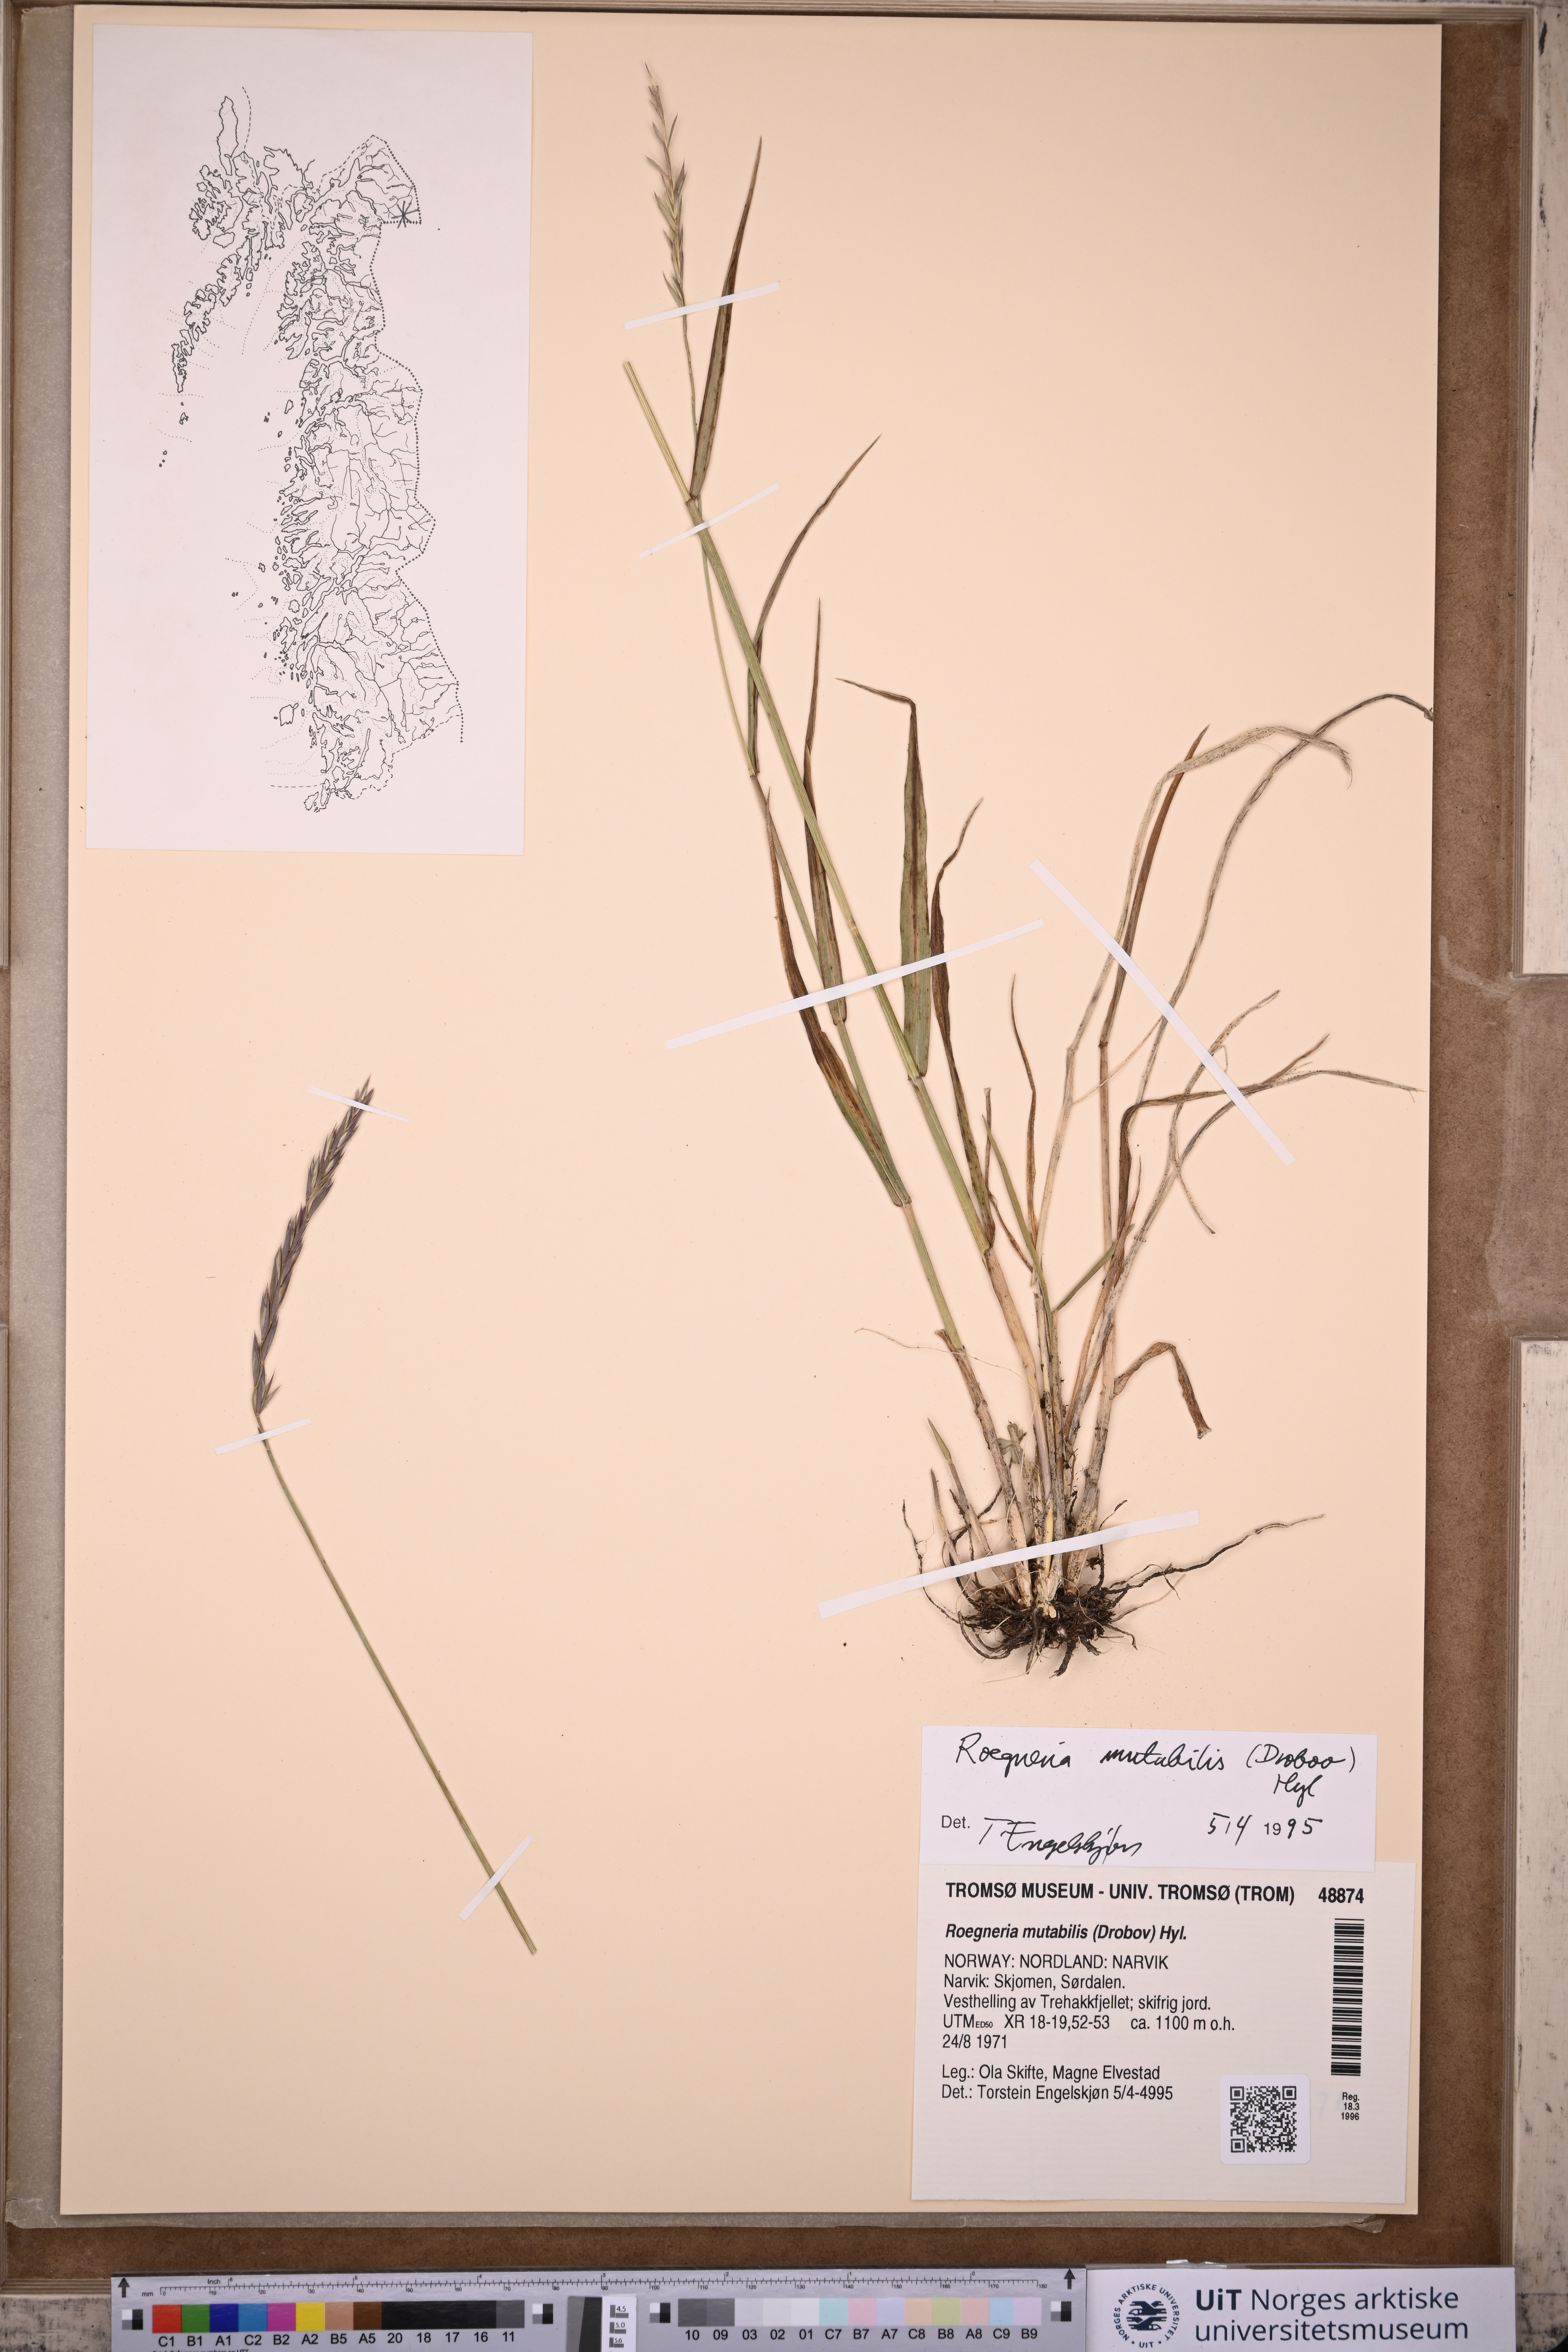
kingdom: Plantae
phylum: Tracheophyta
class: Liliopsida
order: Poales
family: Poaceae
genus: Elymus
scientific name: Elymus mutabilis
